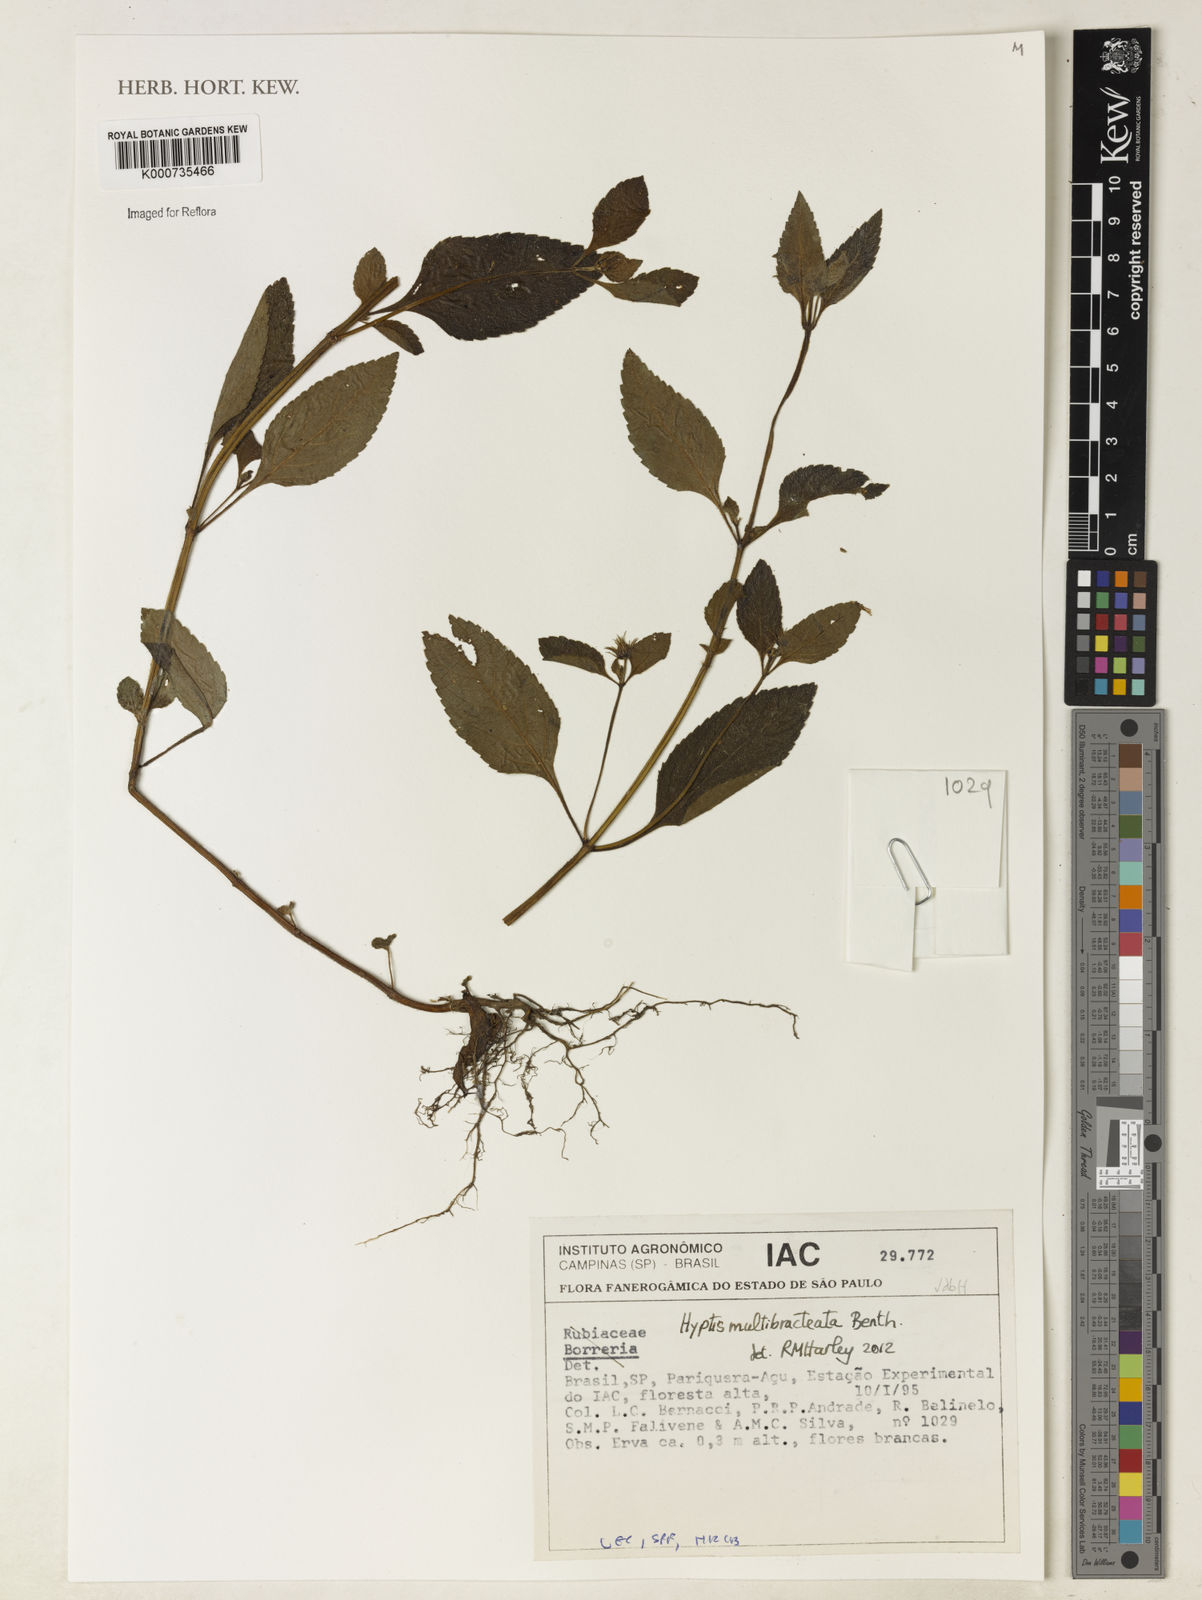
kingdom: Plantae
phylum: Tracheophyta
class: Magnoliopsida
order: Lamiales
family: Lamiaceae
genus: Hyptis
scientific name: Hyptis multibracteata
